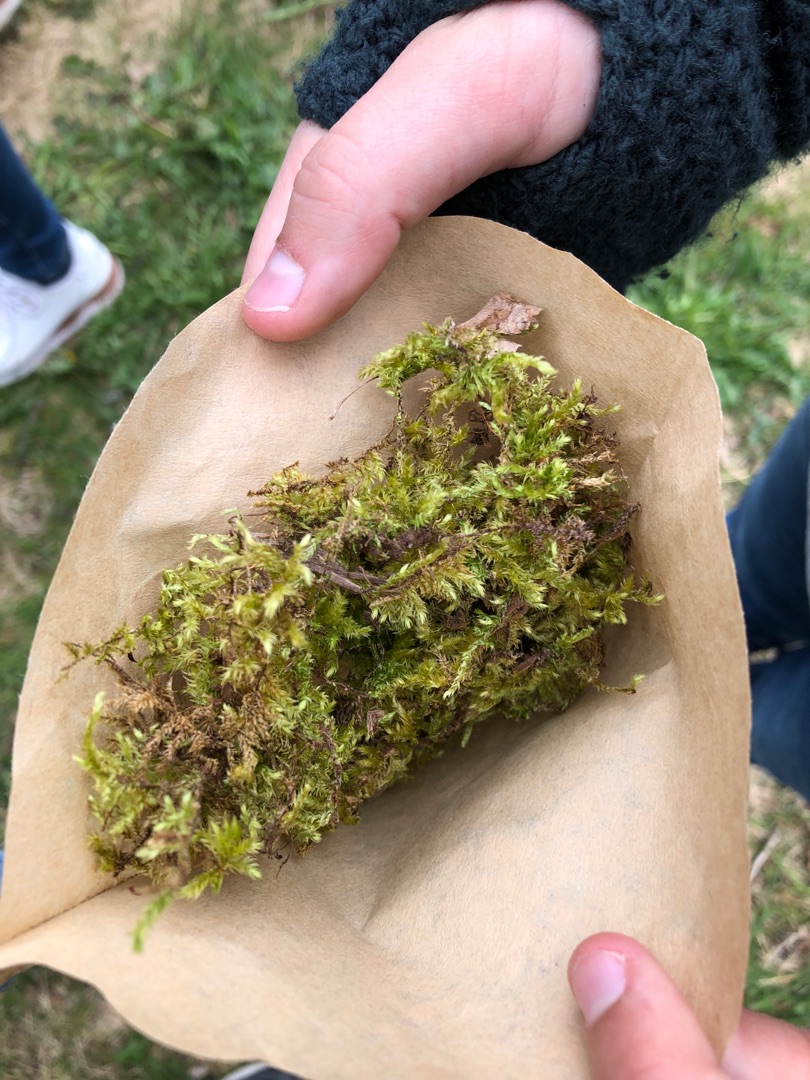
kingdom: Plantae
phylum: Bryophyta
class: Bryopsida
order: Hypnales
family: Brachytheciaceae
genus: Brachythecium
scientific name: Brachythecium rutabulum
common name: Almindelig kortkapsel
